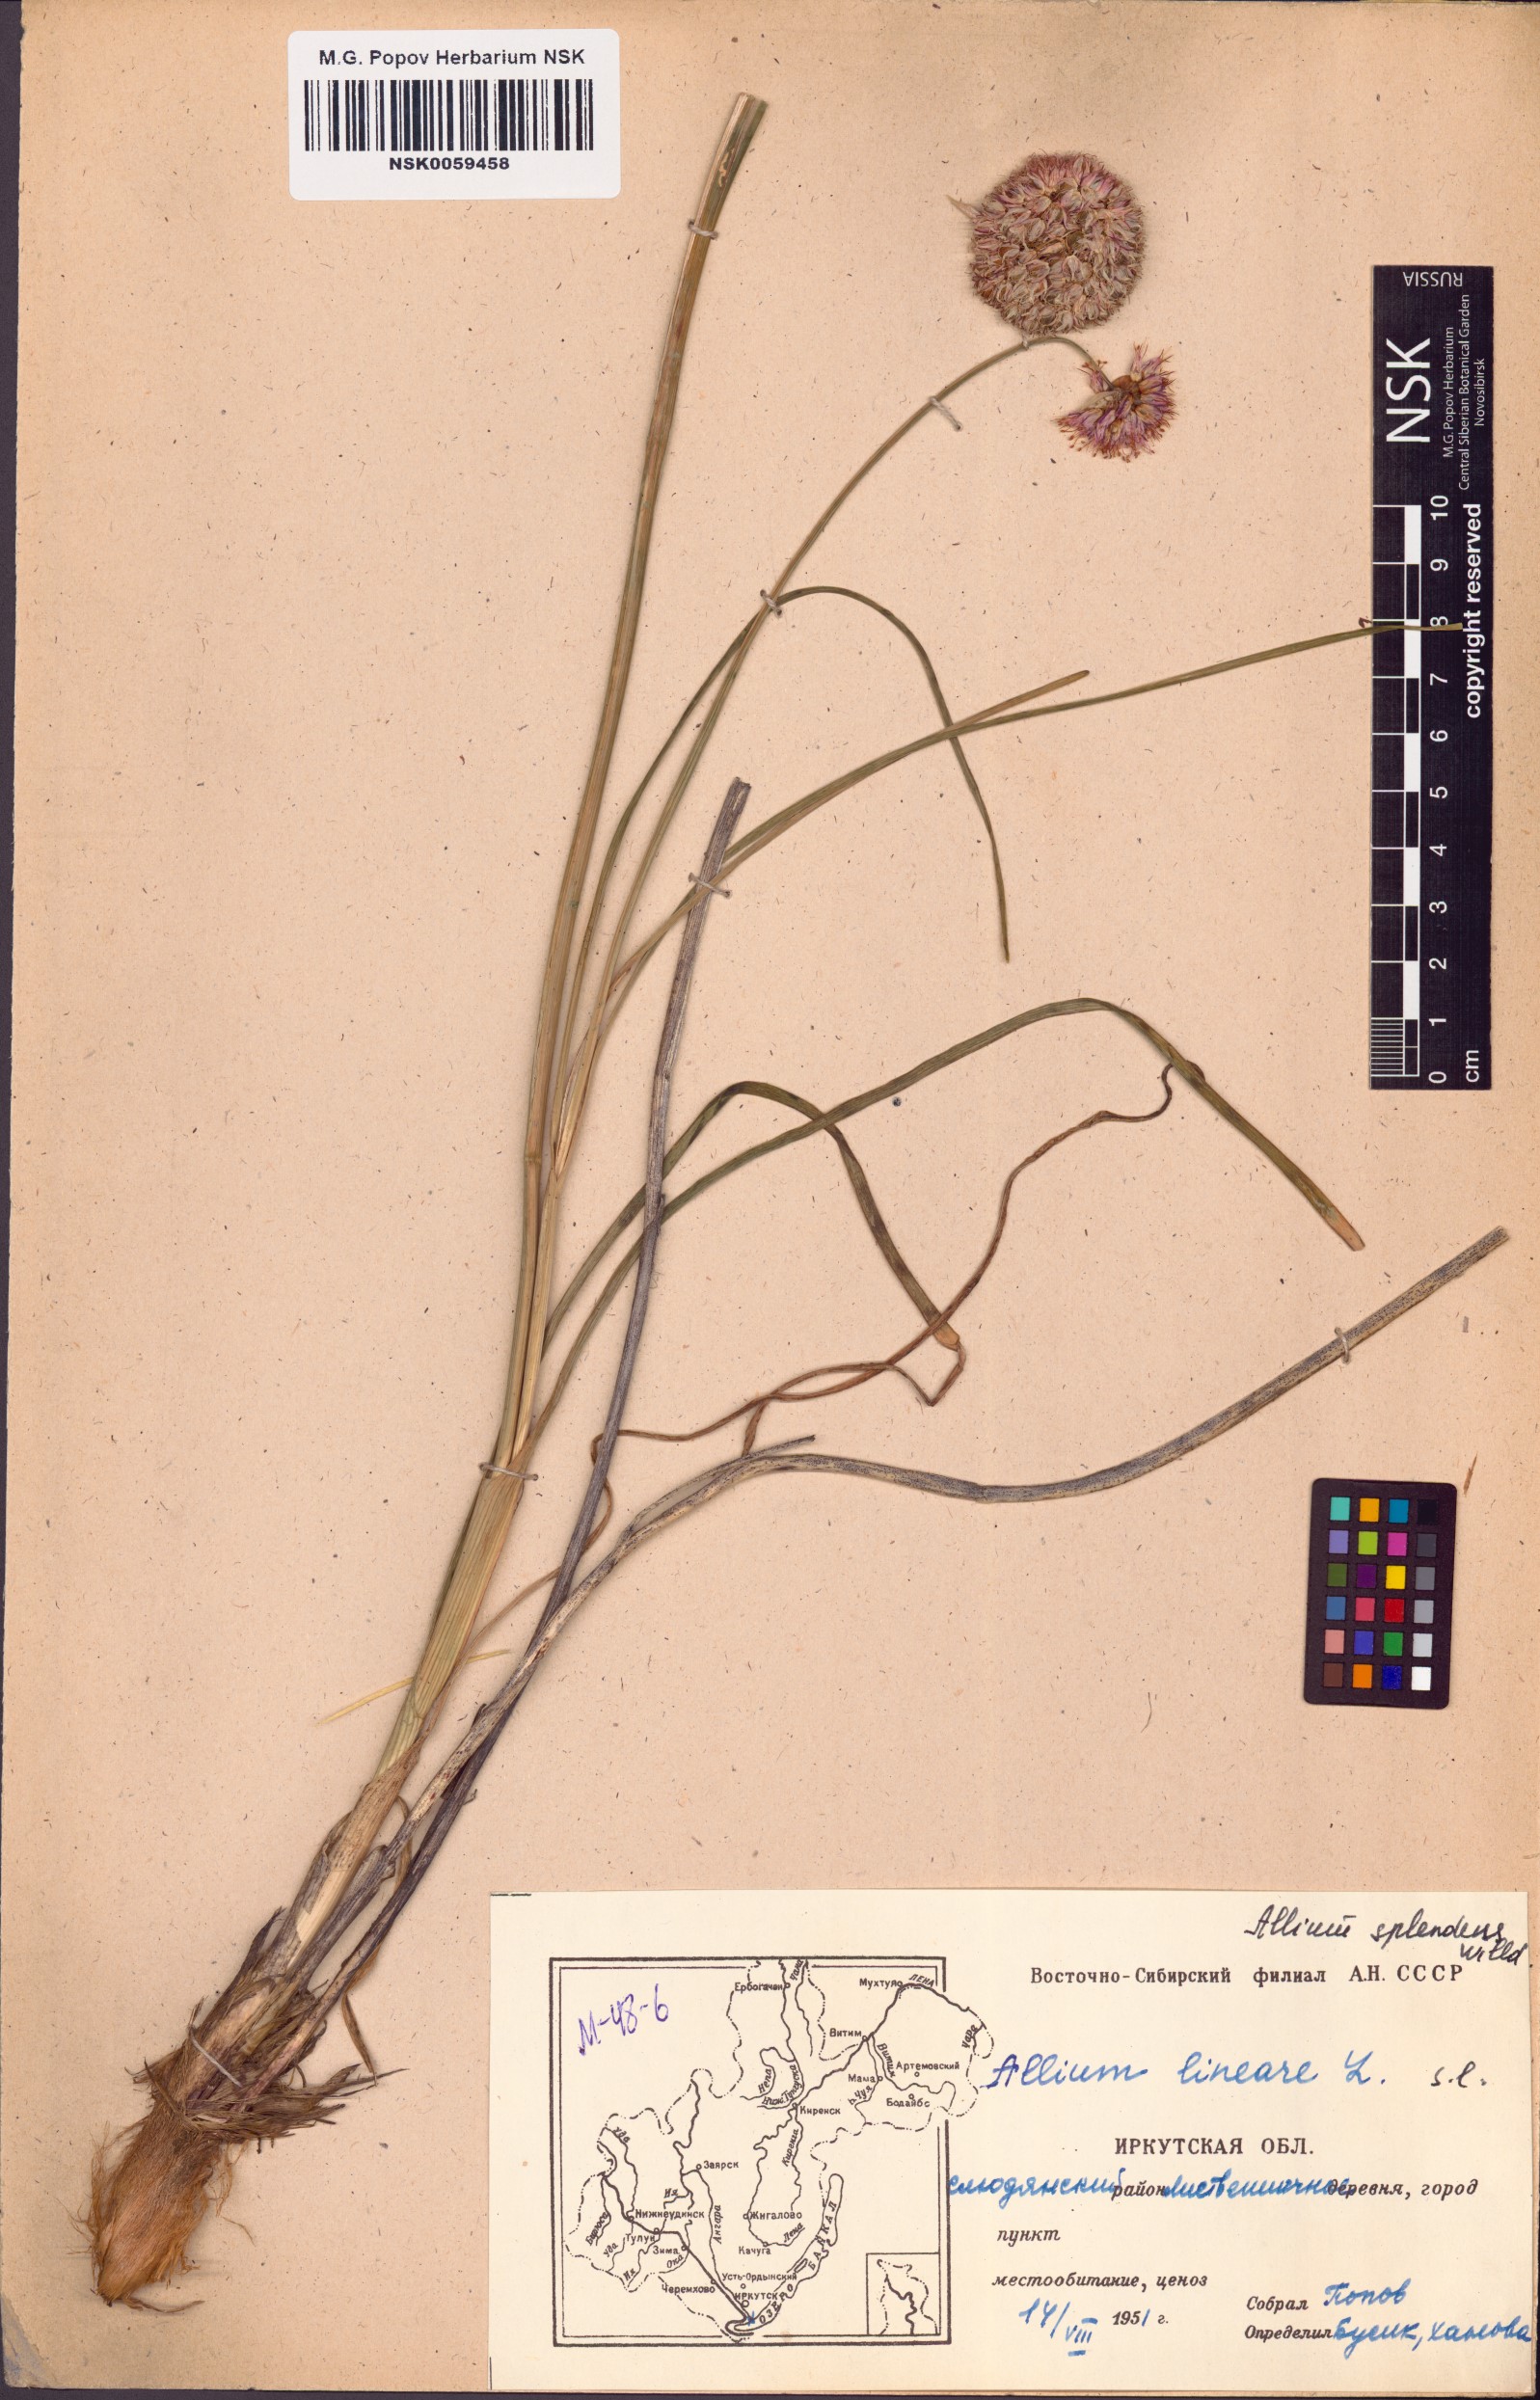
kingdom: Plantae
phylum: Tracheophyta
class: Liliopsida
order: Asparagales
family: Amaryllidaceae
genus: Allium
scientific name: Allium splendens
